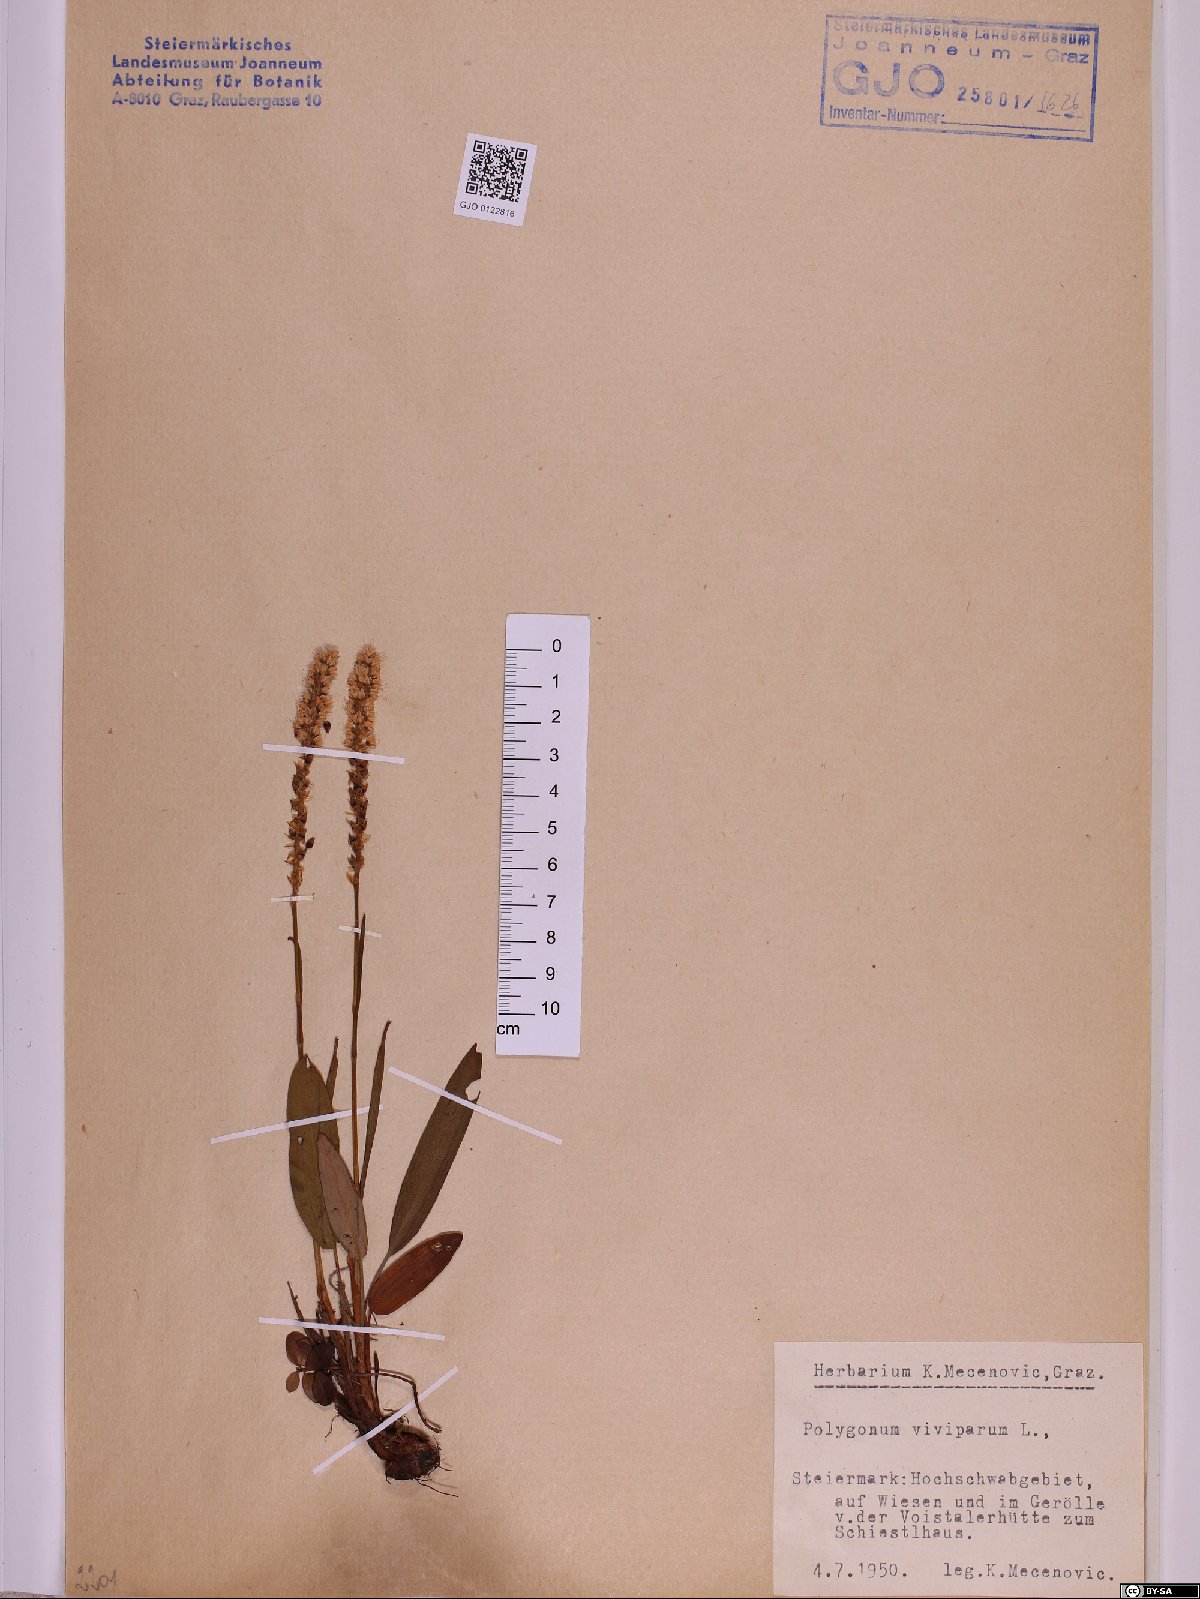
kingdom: Plantae
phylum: Tracheophyta
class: Magnoliopsida
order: Caryophyllales
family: Polygonaceae
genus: Bistorta
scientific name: Bistorta vivipara
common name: Alpine bistort
